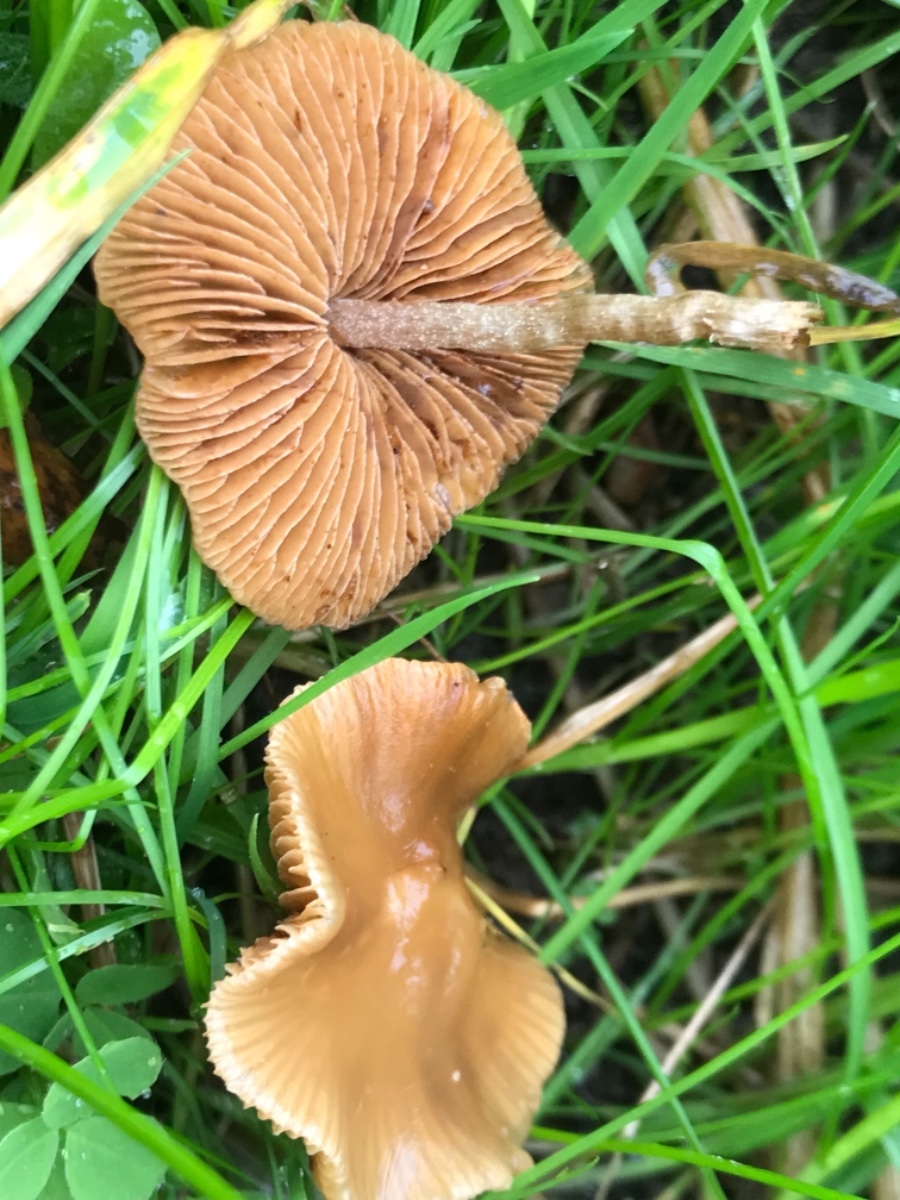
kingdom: Fungi
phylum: Basidiomycota
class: Agaricomycetes
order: Agaricales
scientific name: Agaricales
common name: champignonordenen
